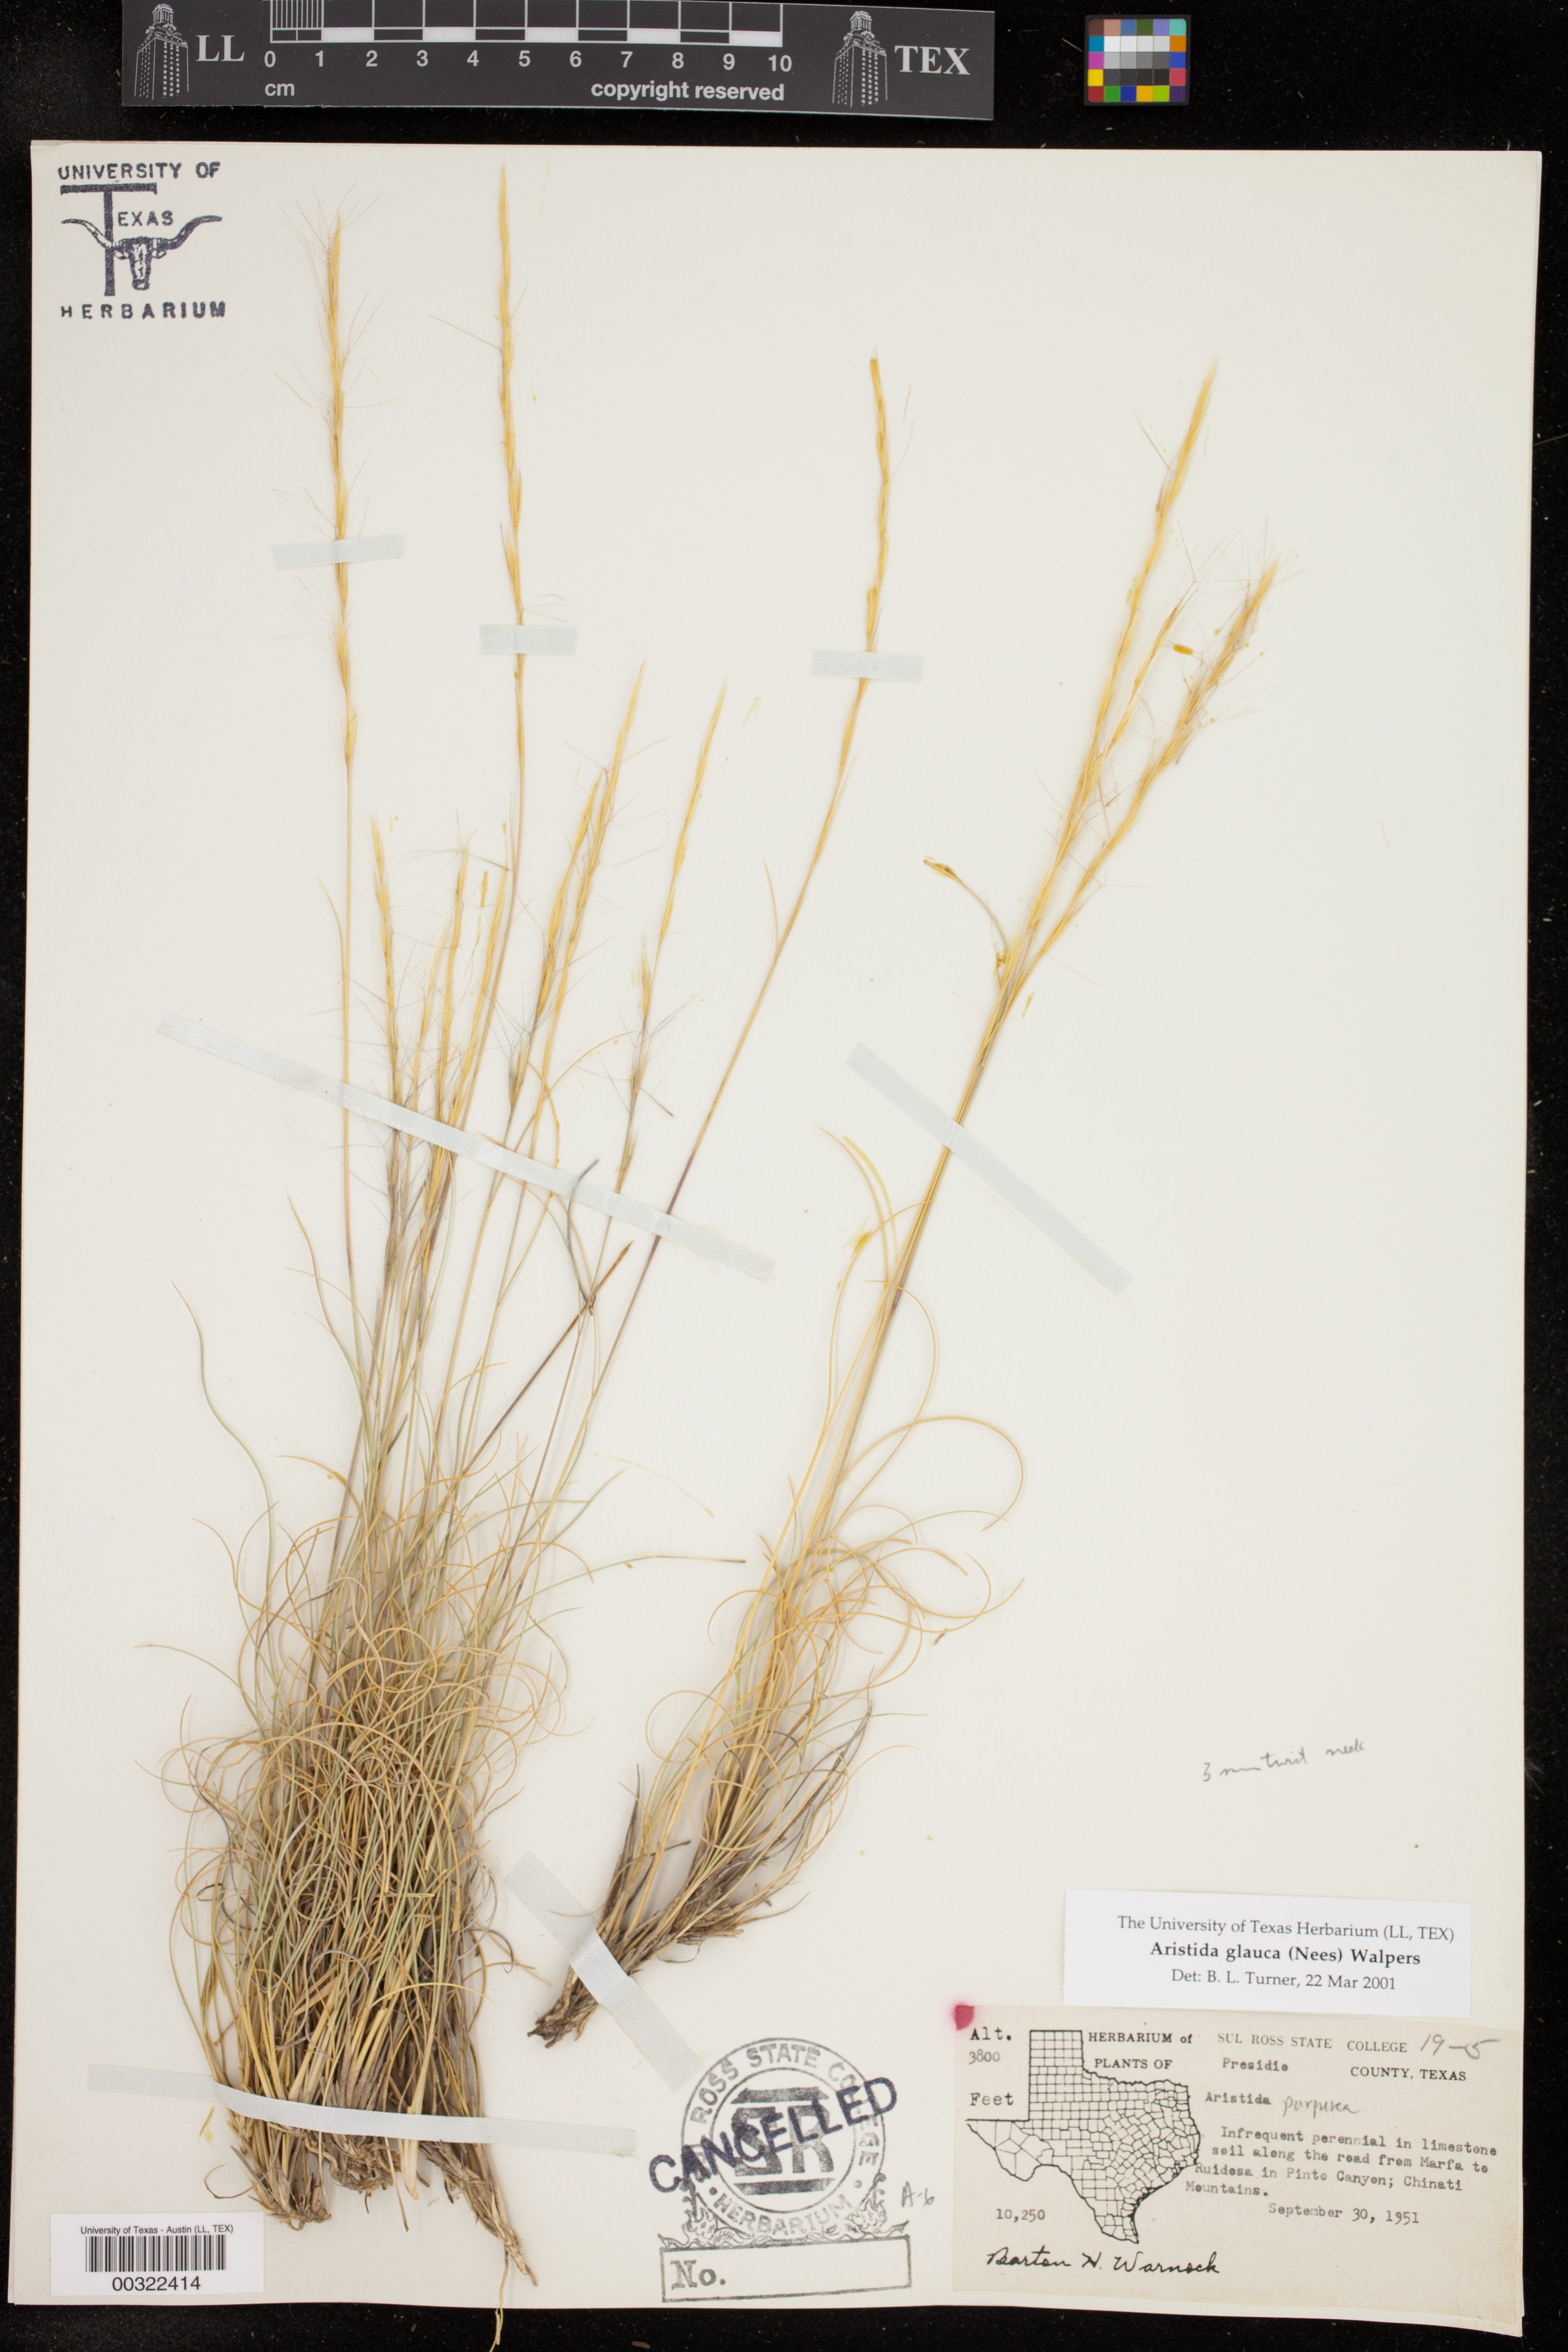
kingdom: Plantae
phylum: Tracheophyta
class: Liliopsida
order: Poales
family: Poaceae
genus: Aristida
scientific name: Aristida glauca
